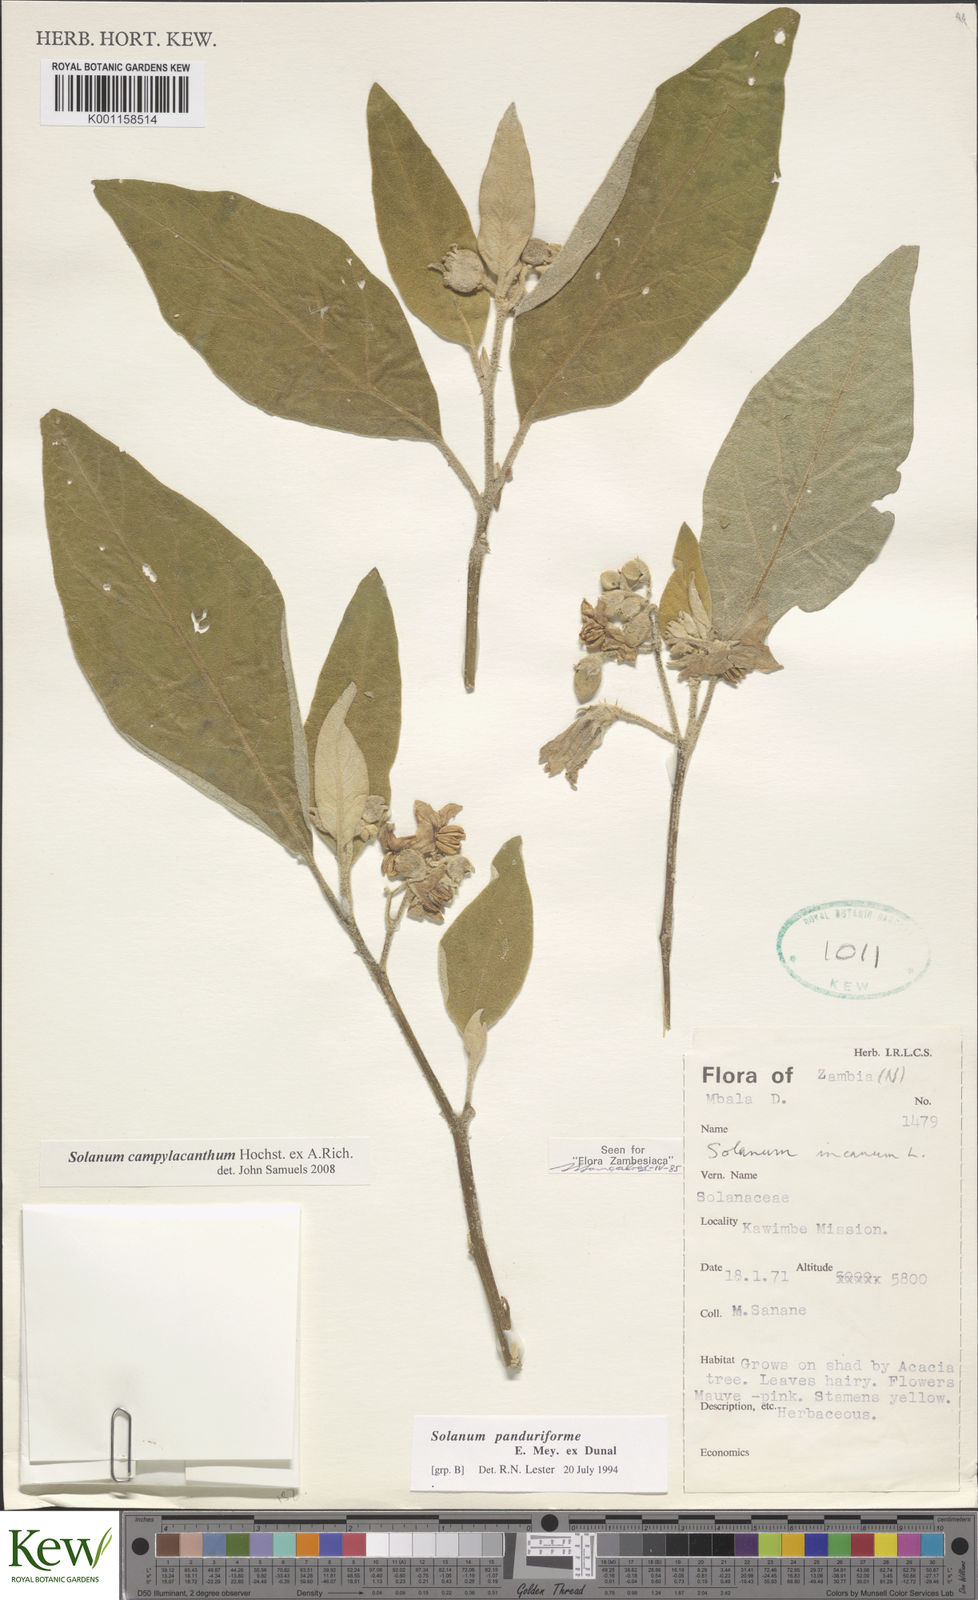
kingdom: Plantae
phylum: Tracheophyta
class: Magnoliopsida
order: Solanales
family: Solanaceae
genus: Solanum
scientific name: Solanum campylacanthum
